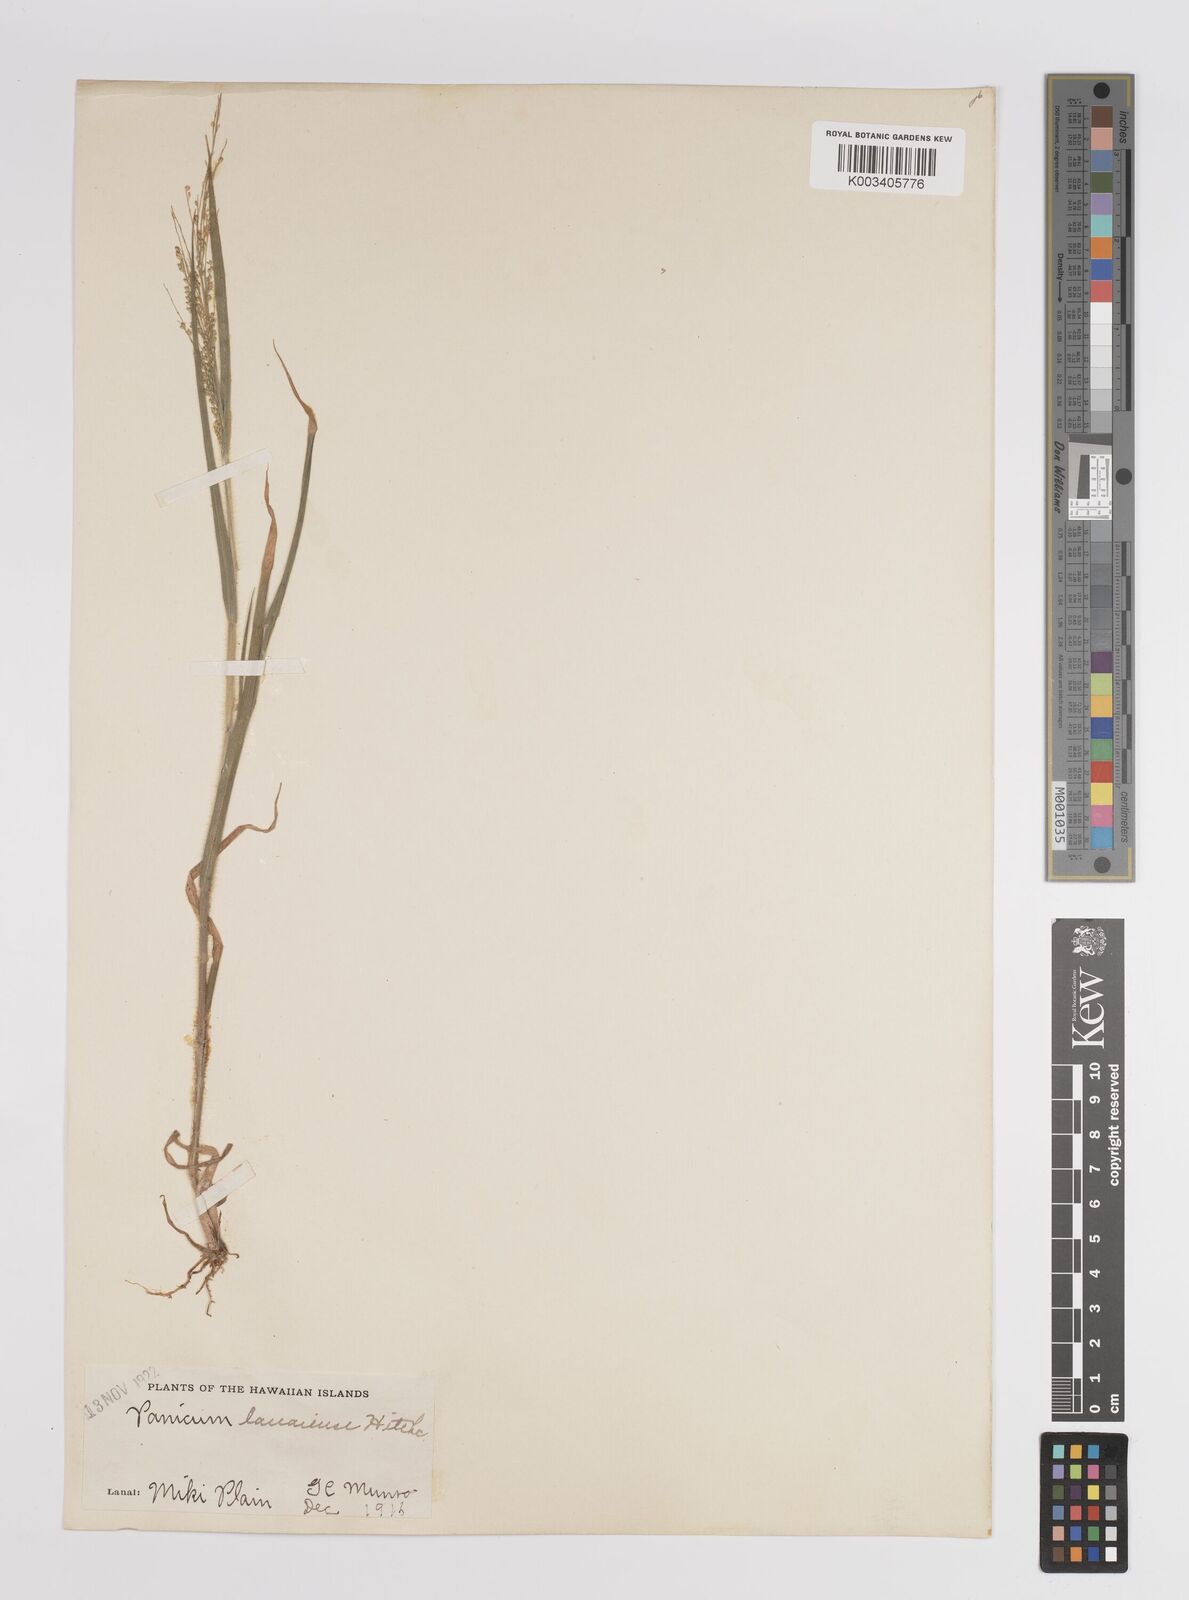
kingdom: Plantae
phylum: Tracheophyta
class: Liliopsida
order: Poales
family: Poaceae
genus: Panicum
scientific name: Panicum pellitum
